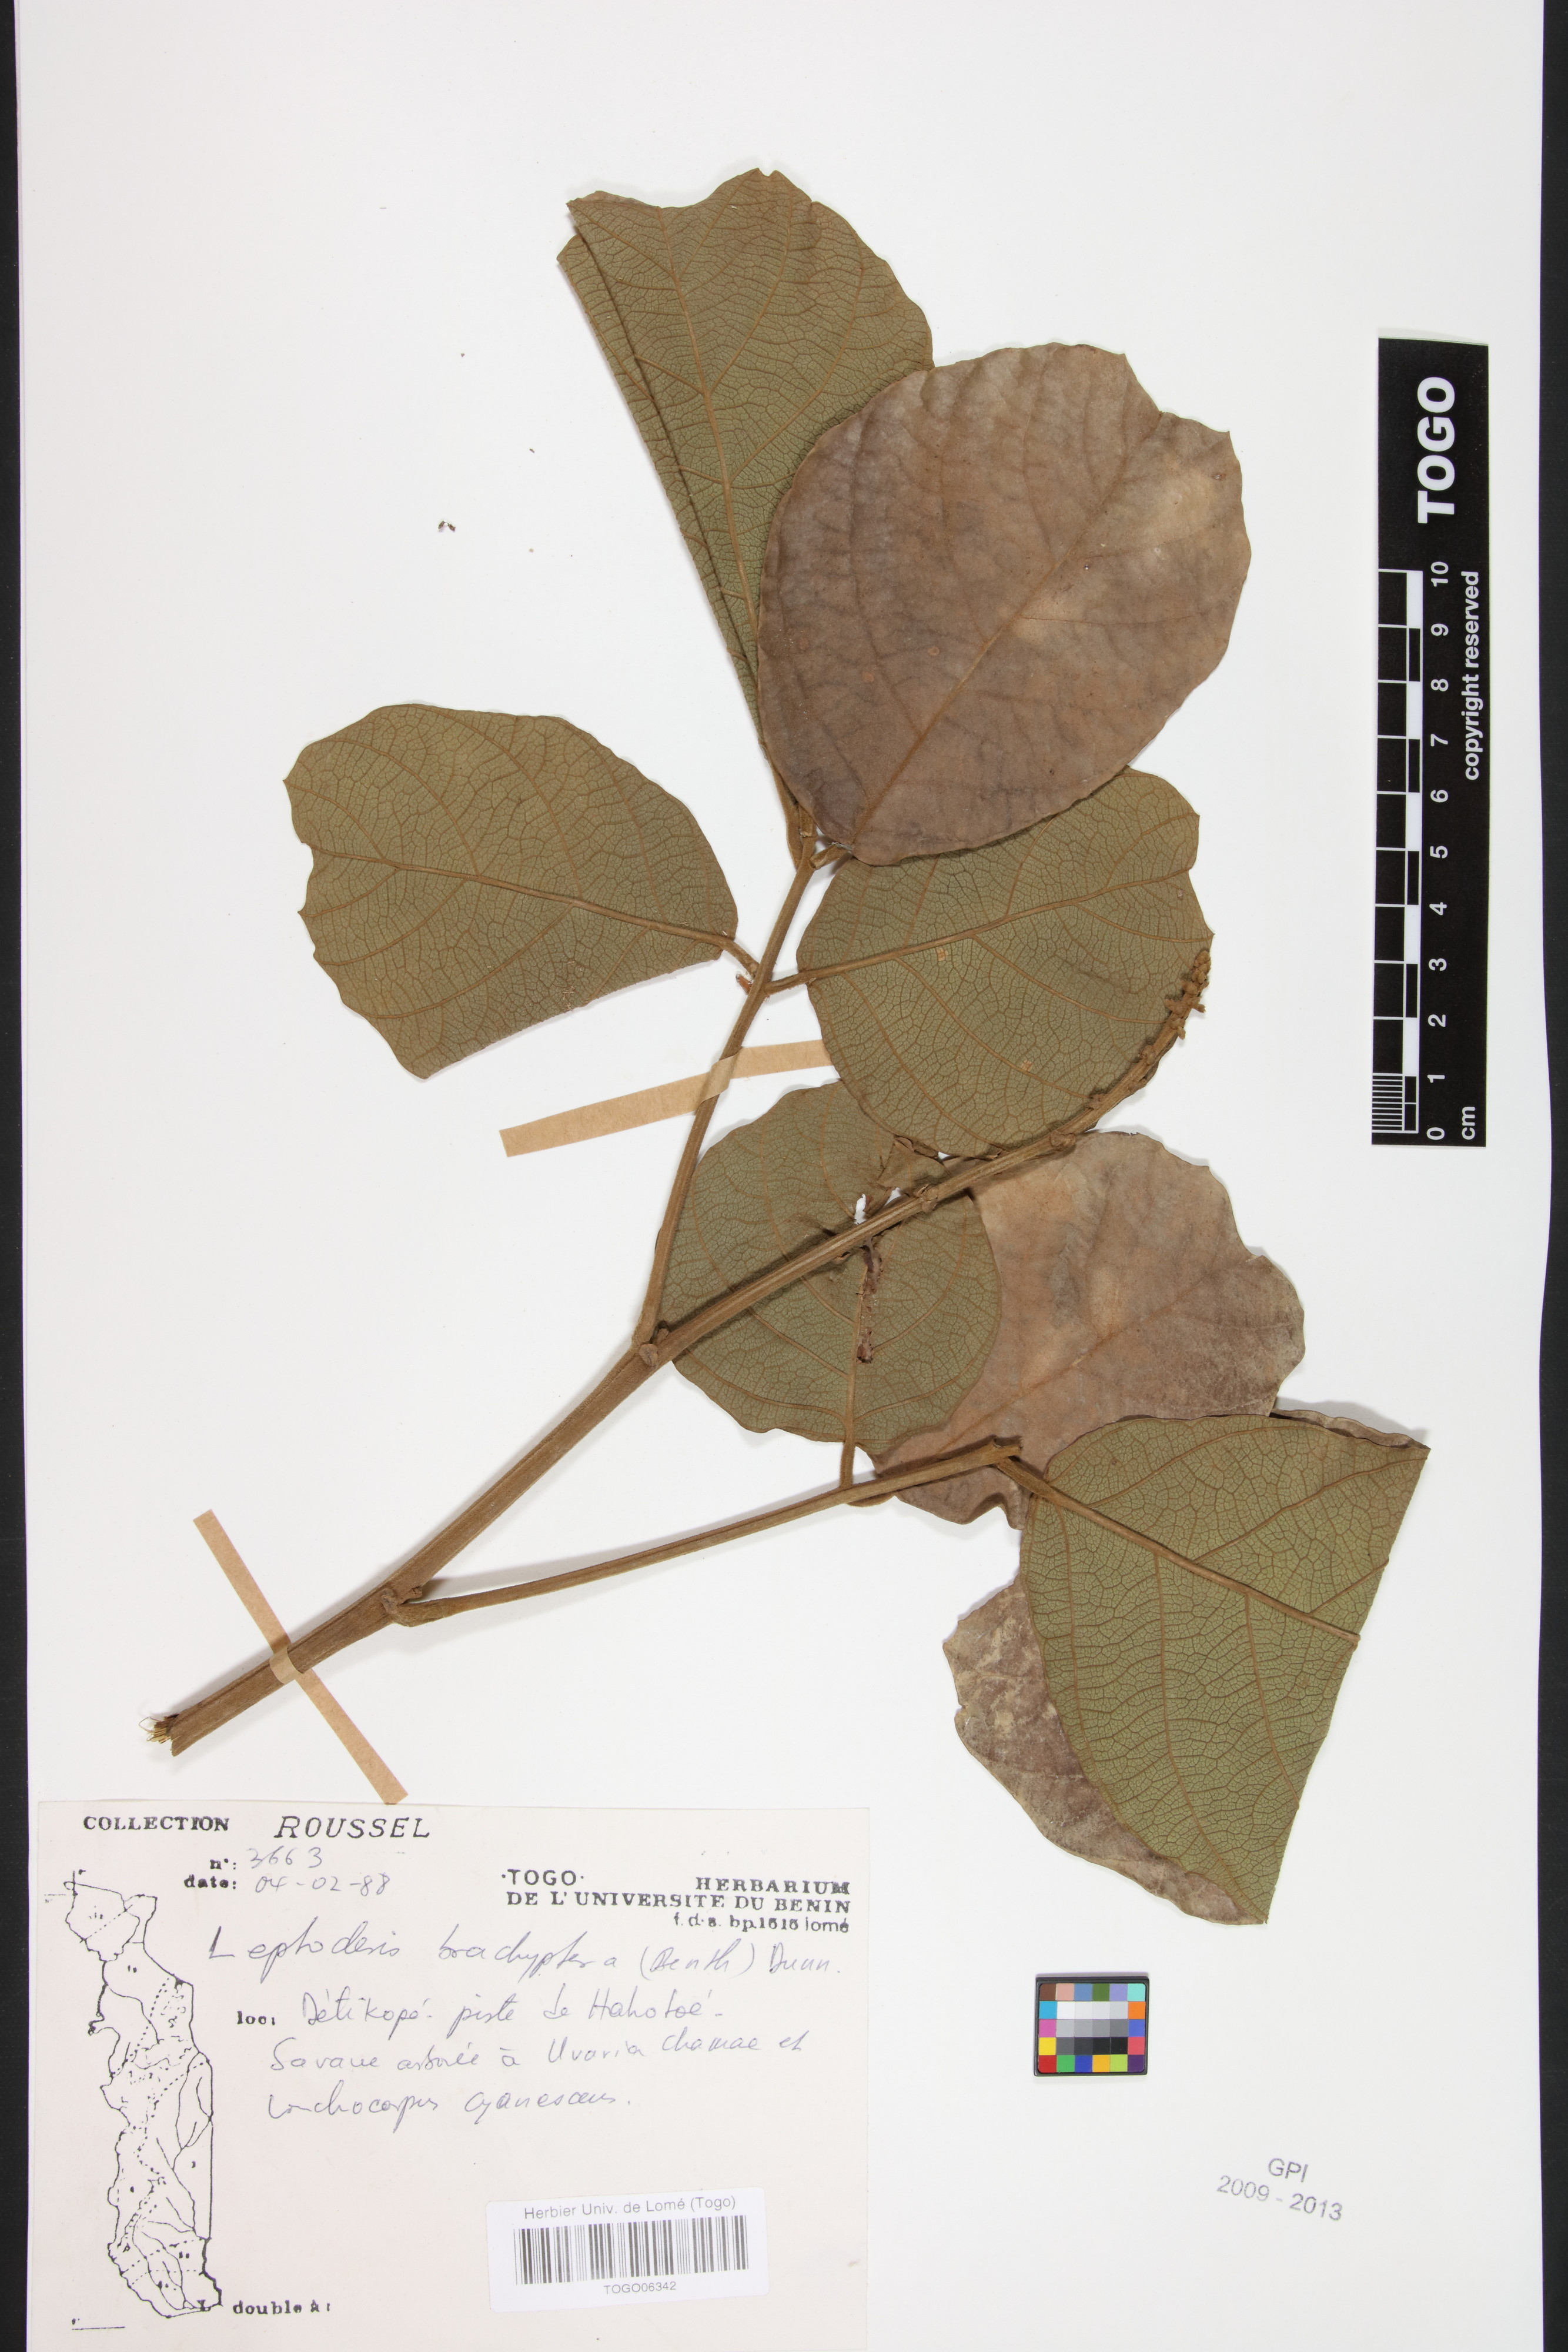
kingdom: Plantae
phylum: Tracheophyta
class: Magnoliopsida
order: Fabales
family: Fabaceae
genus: Leptoderris
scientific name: Leptoderris brachyptera
